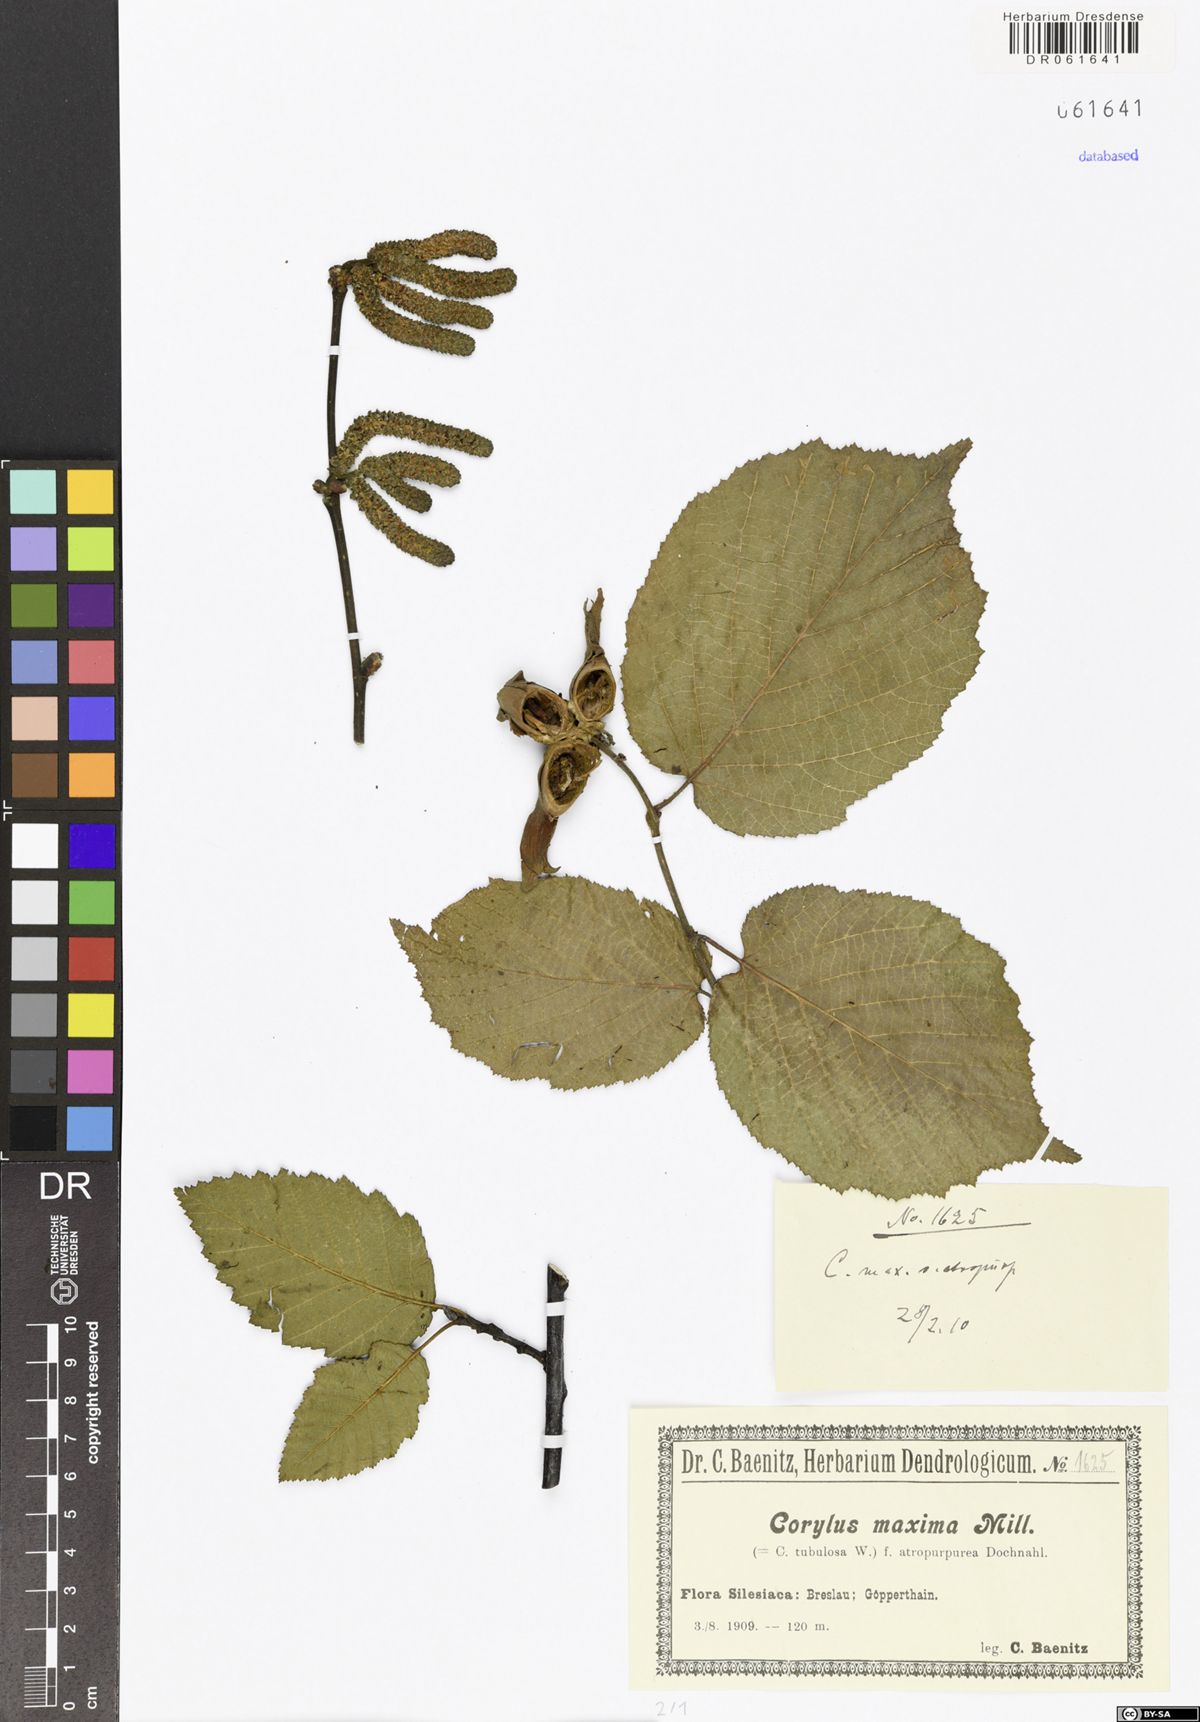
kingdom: Plantae
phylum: Tracheophyta
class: Magnoliopsida
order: Fagales
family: Betulaceae
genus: Corylus
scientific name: Corylus maxima
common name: Filbert
